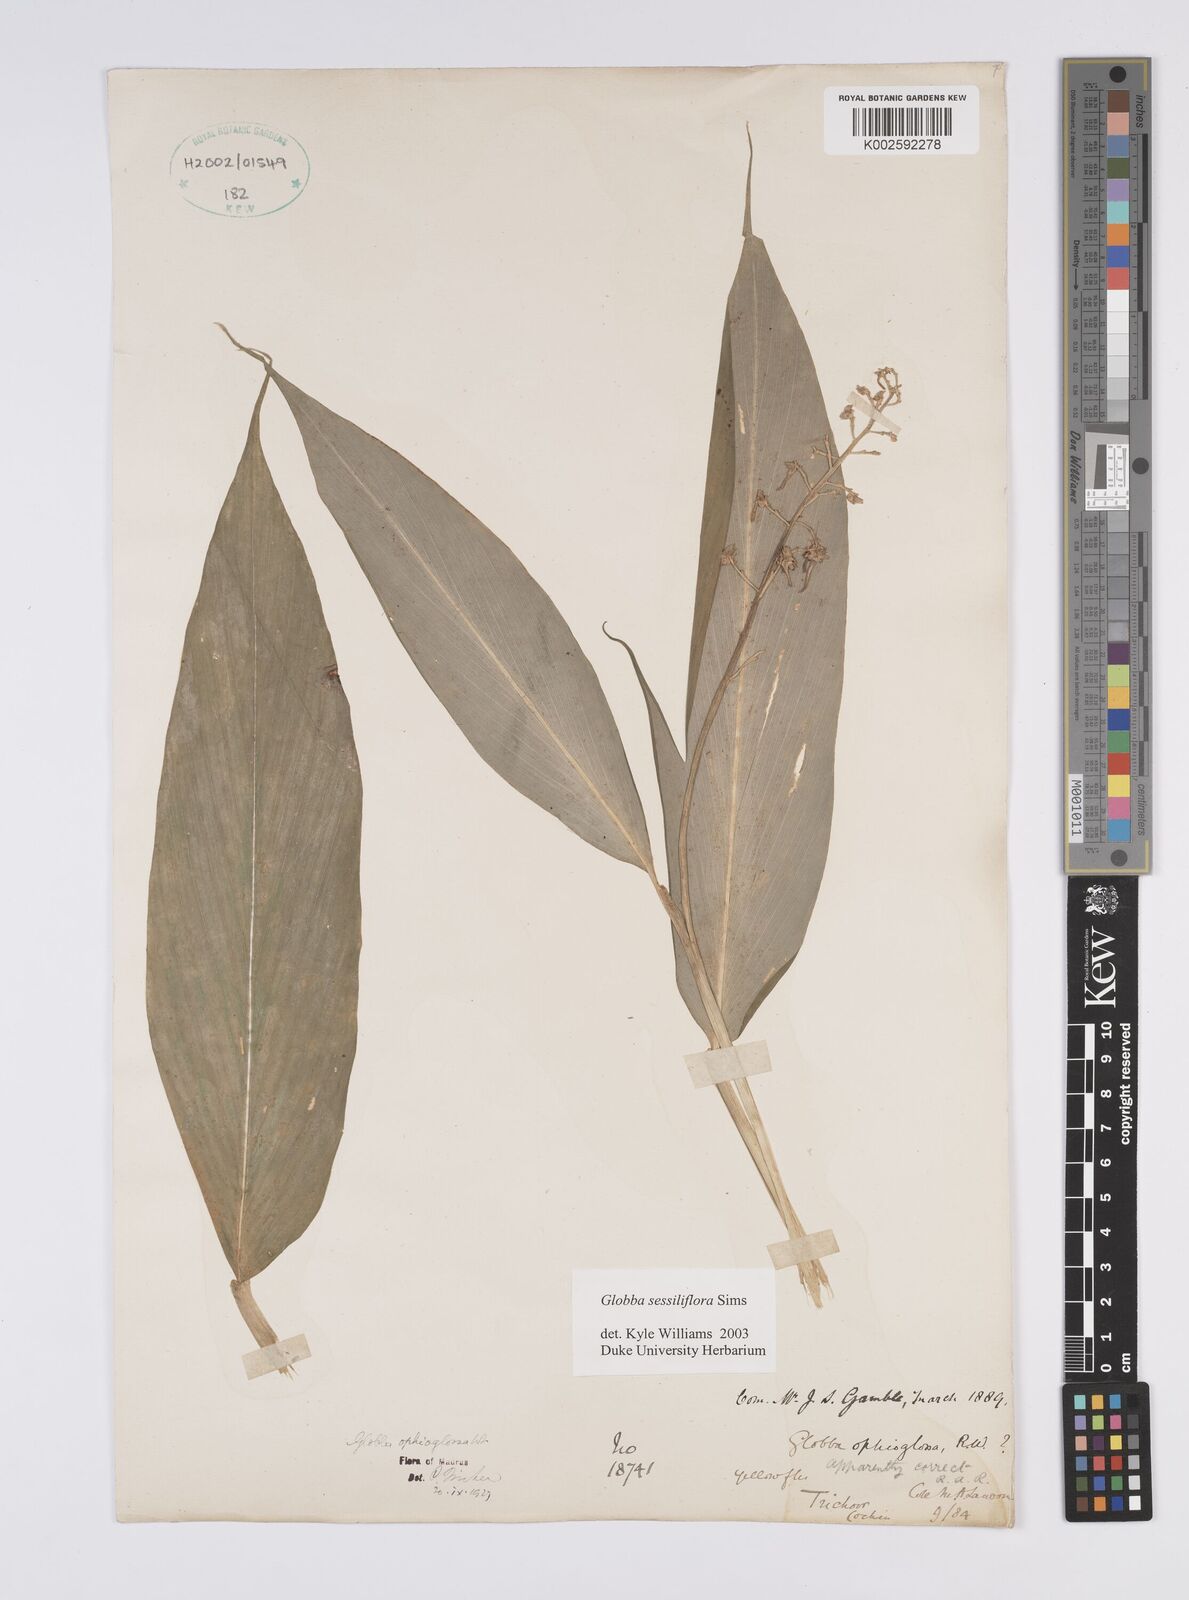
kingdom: Plantae
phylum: Tracheophyta
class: Liliopsida
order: Zingiberales
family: Zingiberaceae
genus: Globba
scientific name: Globba sessiliflora
